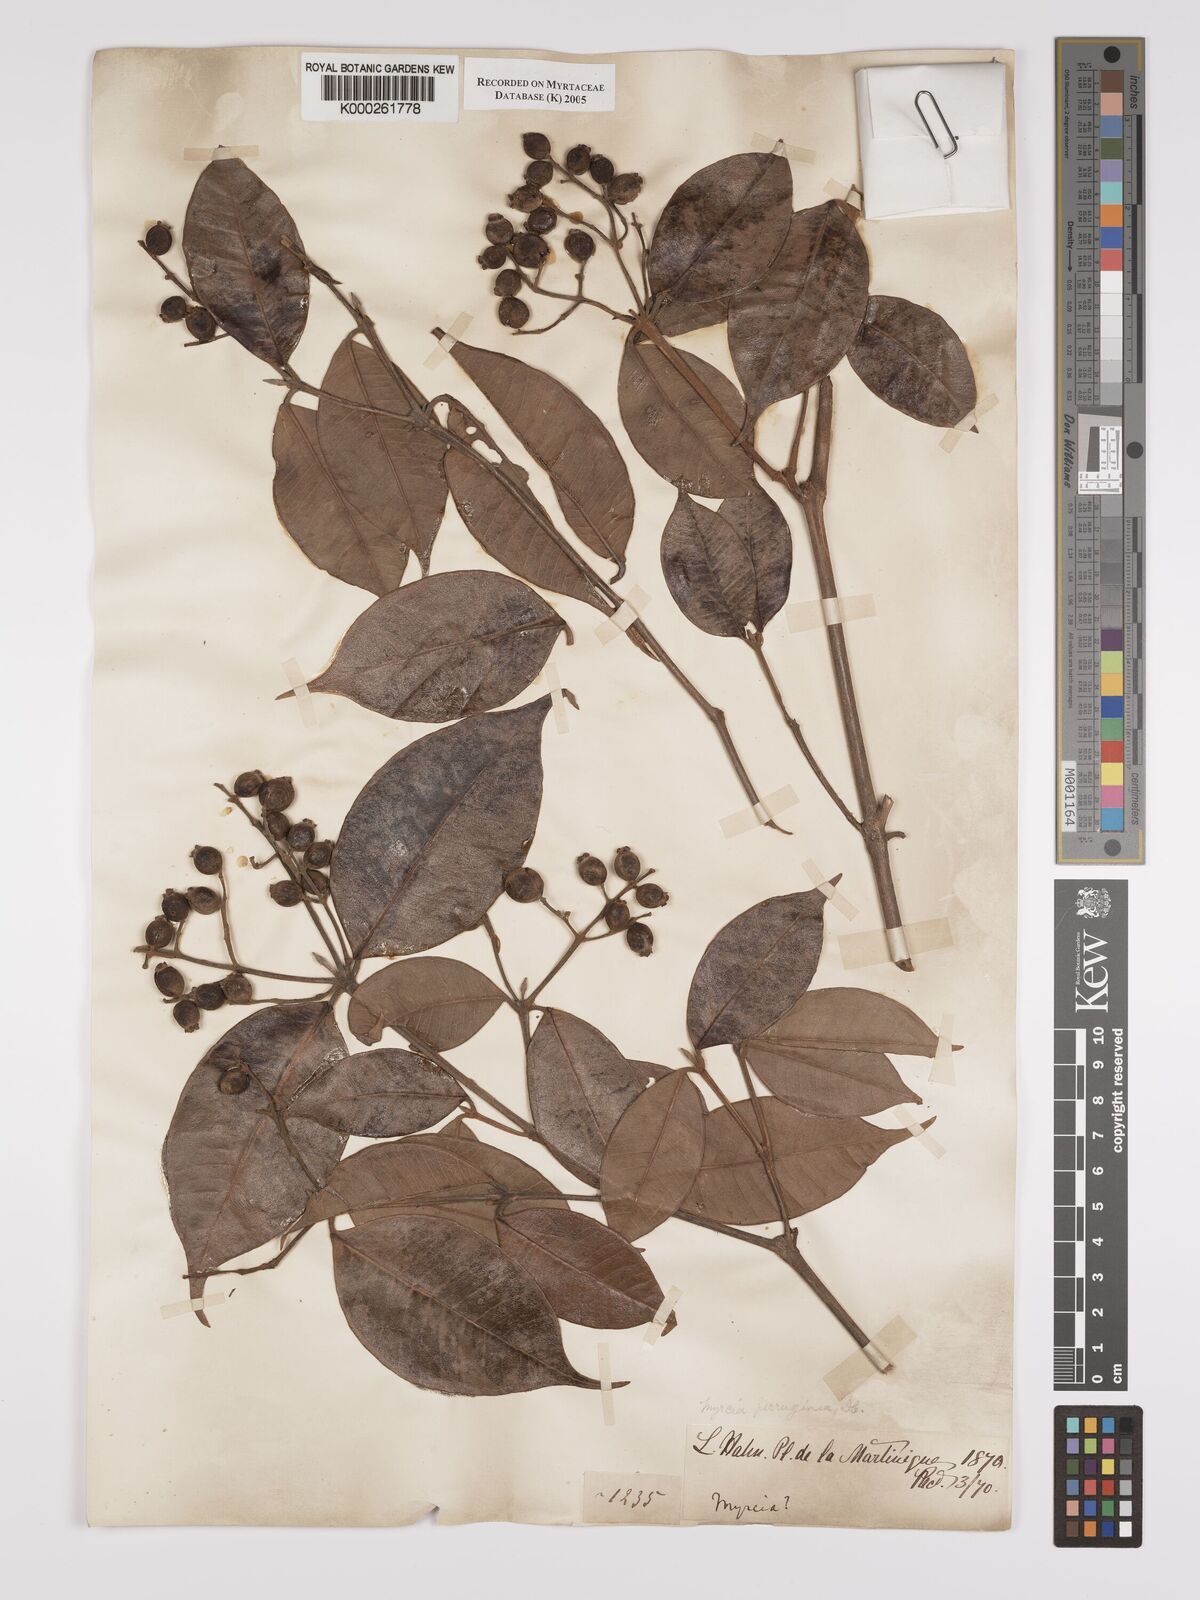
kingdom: Plantae
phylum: Tracheophyta
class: Magnoliopsida
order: Myrtales
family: Myrtaceae
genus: Myrcia
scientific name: Myrcia ferruginea
